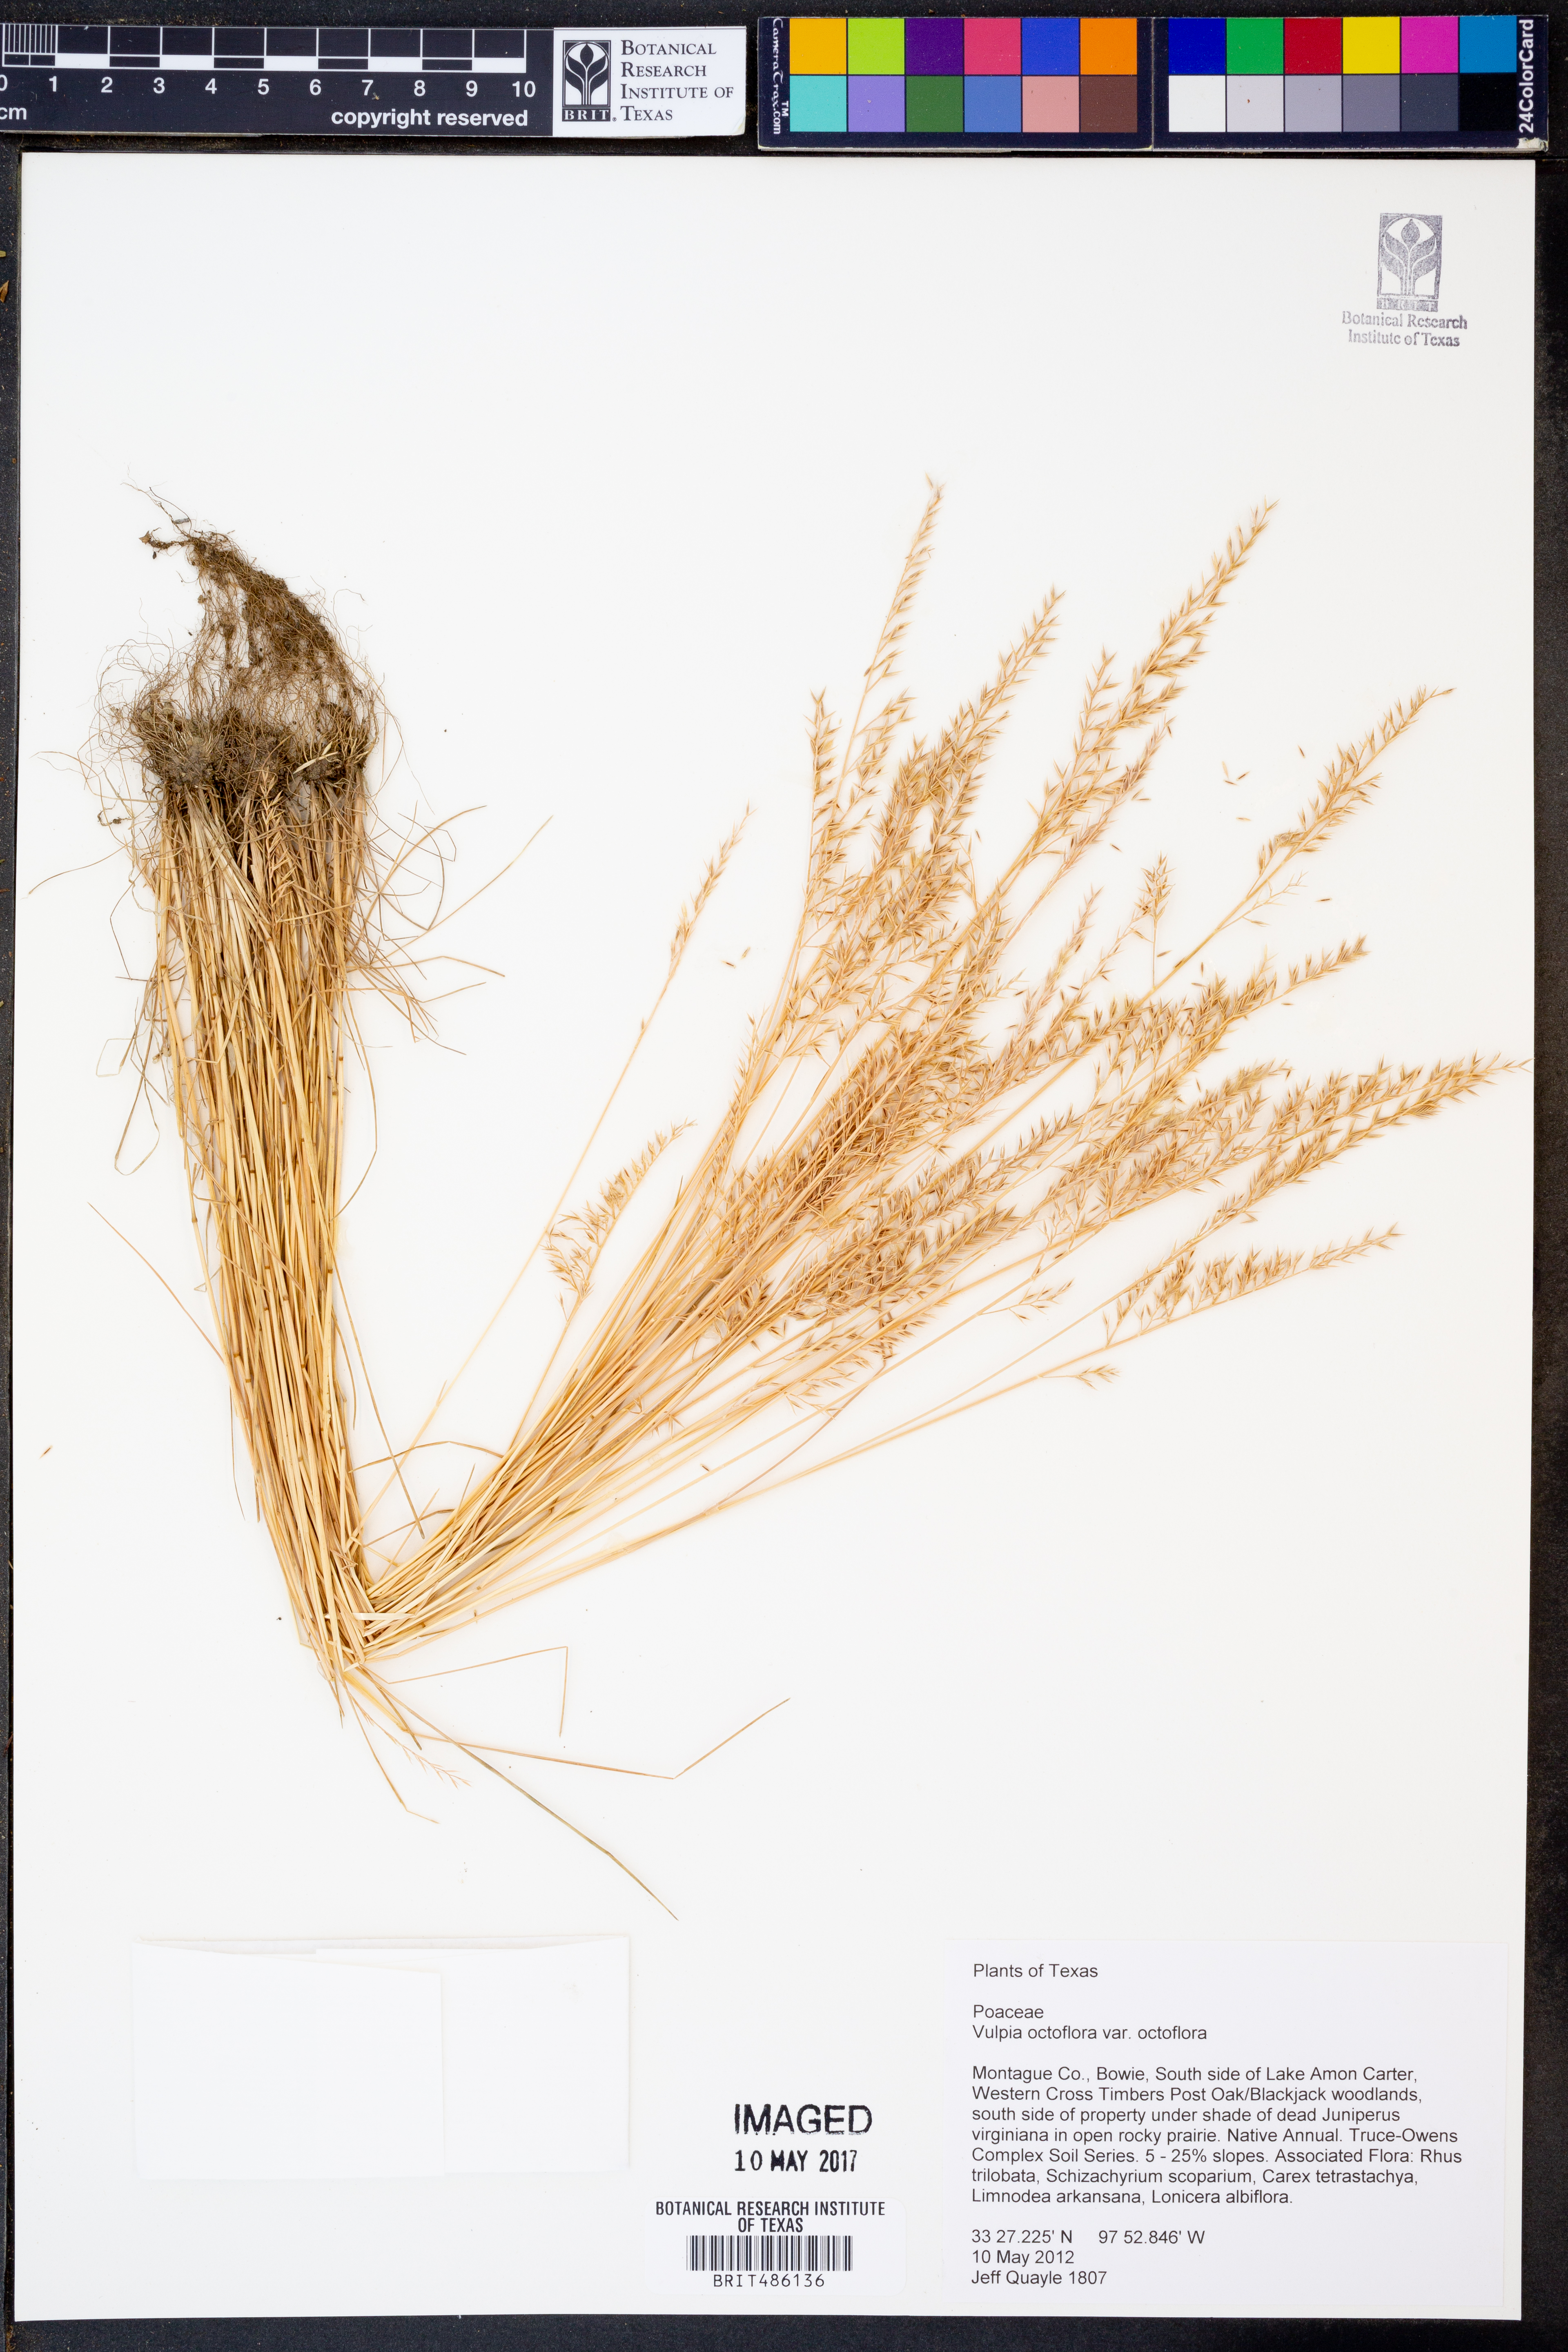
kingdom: Plantae
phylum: Tracheophyta
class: Liliopsida
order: Poales
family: Poaceae
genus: Festuca
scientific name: Festuca octoflora
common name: Sixweeks grass
